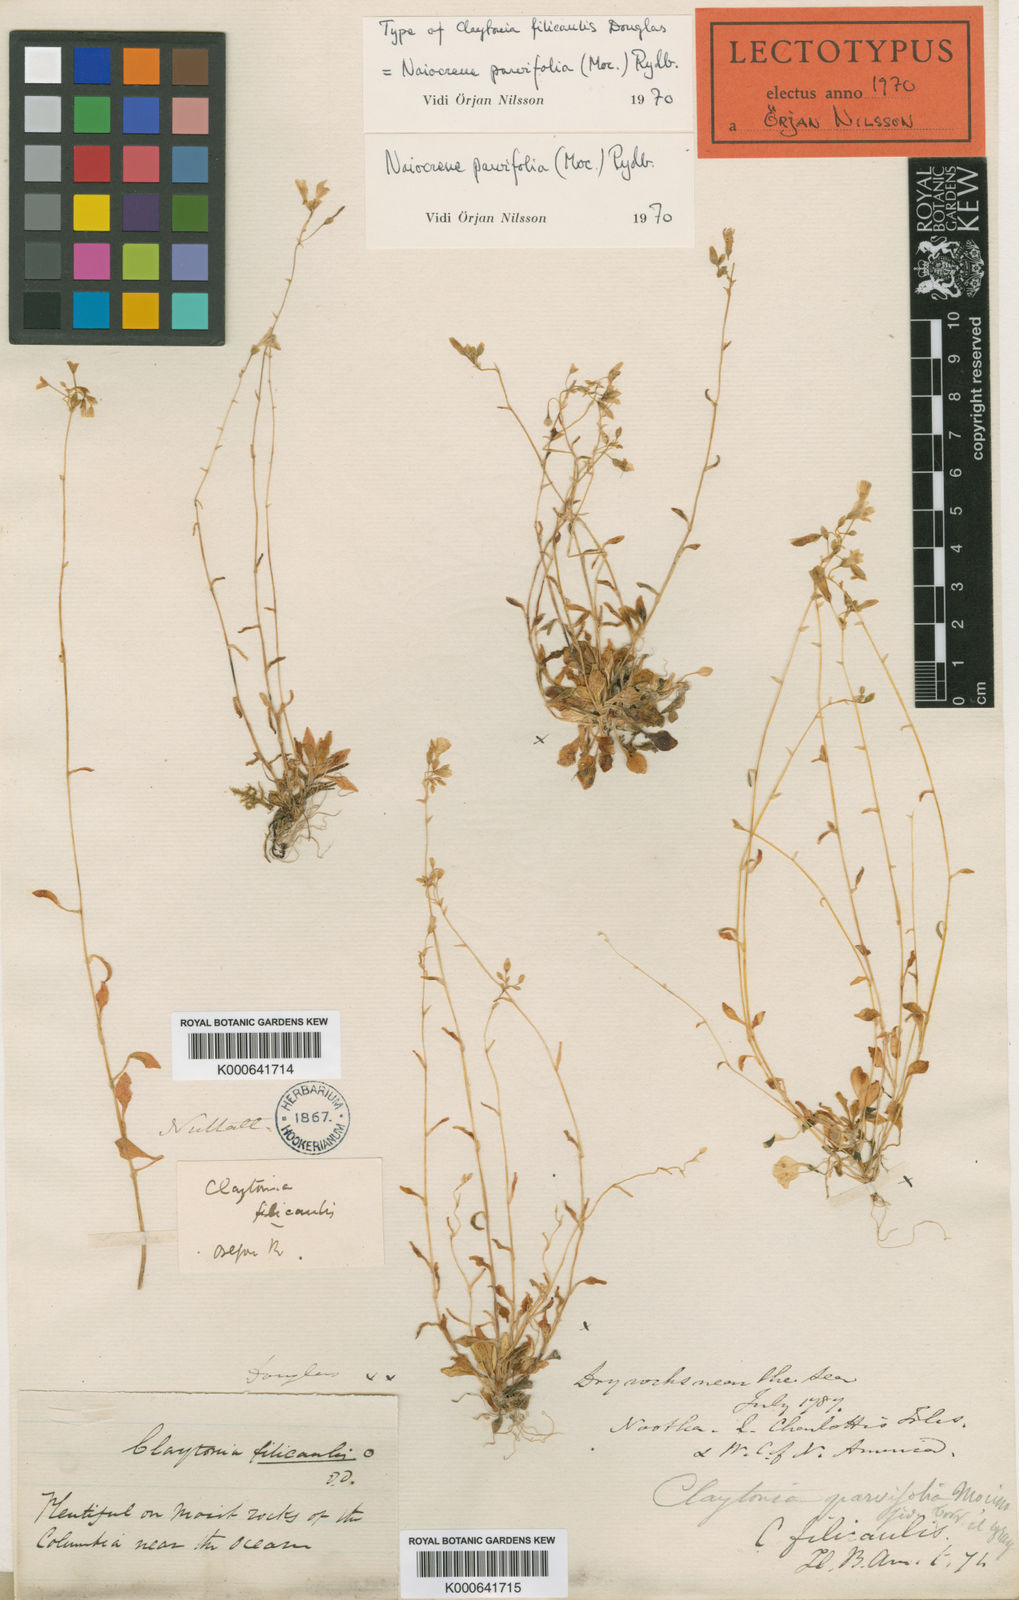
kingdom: Plantae
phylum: Tracheophyta
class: Magnoliopsida
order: Caryophyllales
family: Montiaceae
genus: Claytonia
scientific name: Claytonia parviflora
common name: Indian-lettuce
